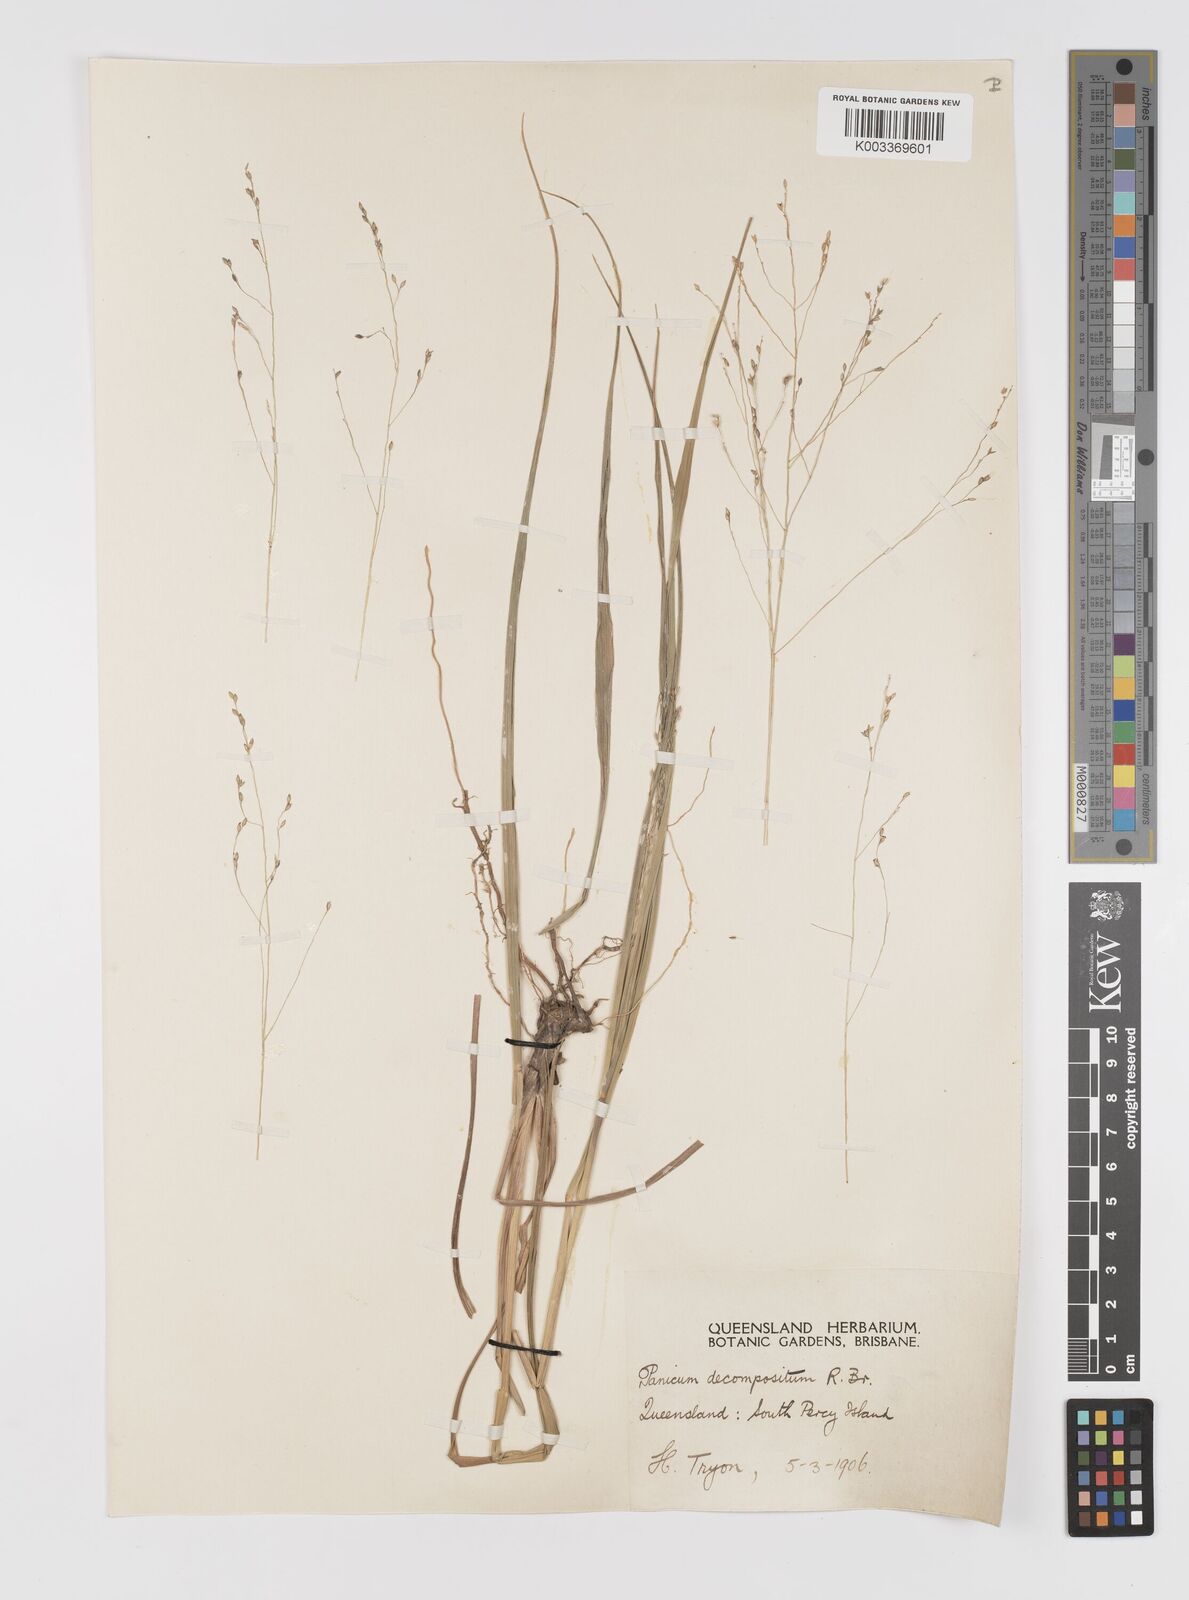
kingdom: Plantae
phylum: Tracheophyta
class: Liliopsida
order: Poales
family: Poaceae
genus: Panicum
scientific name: Panicum decompositum
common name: Australian millet
